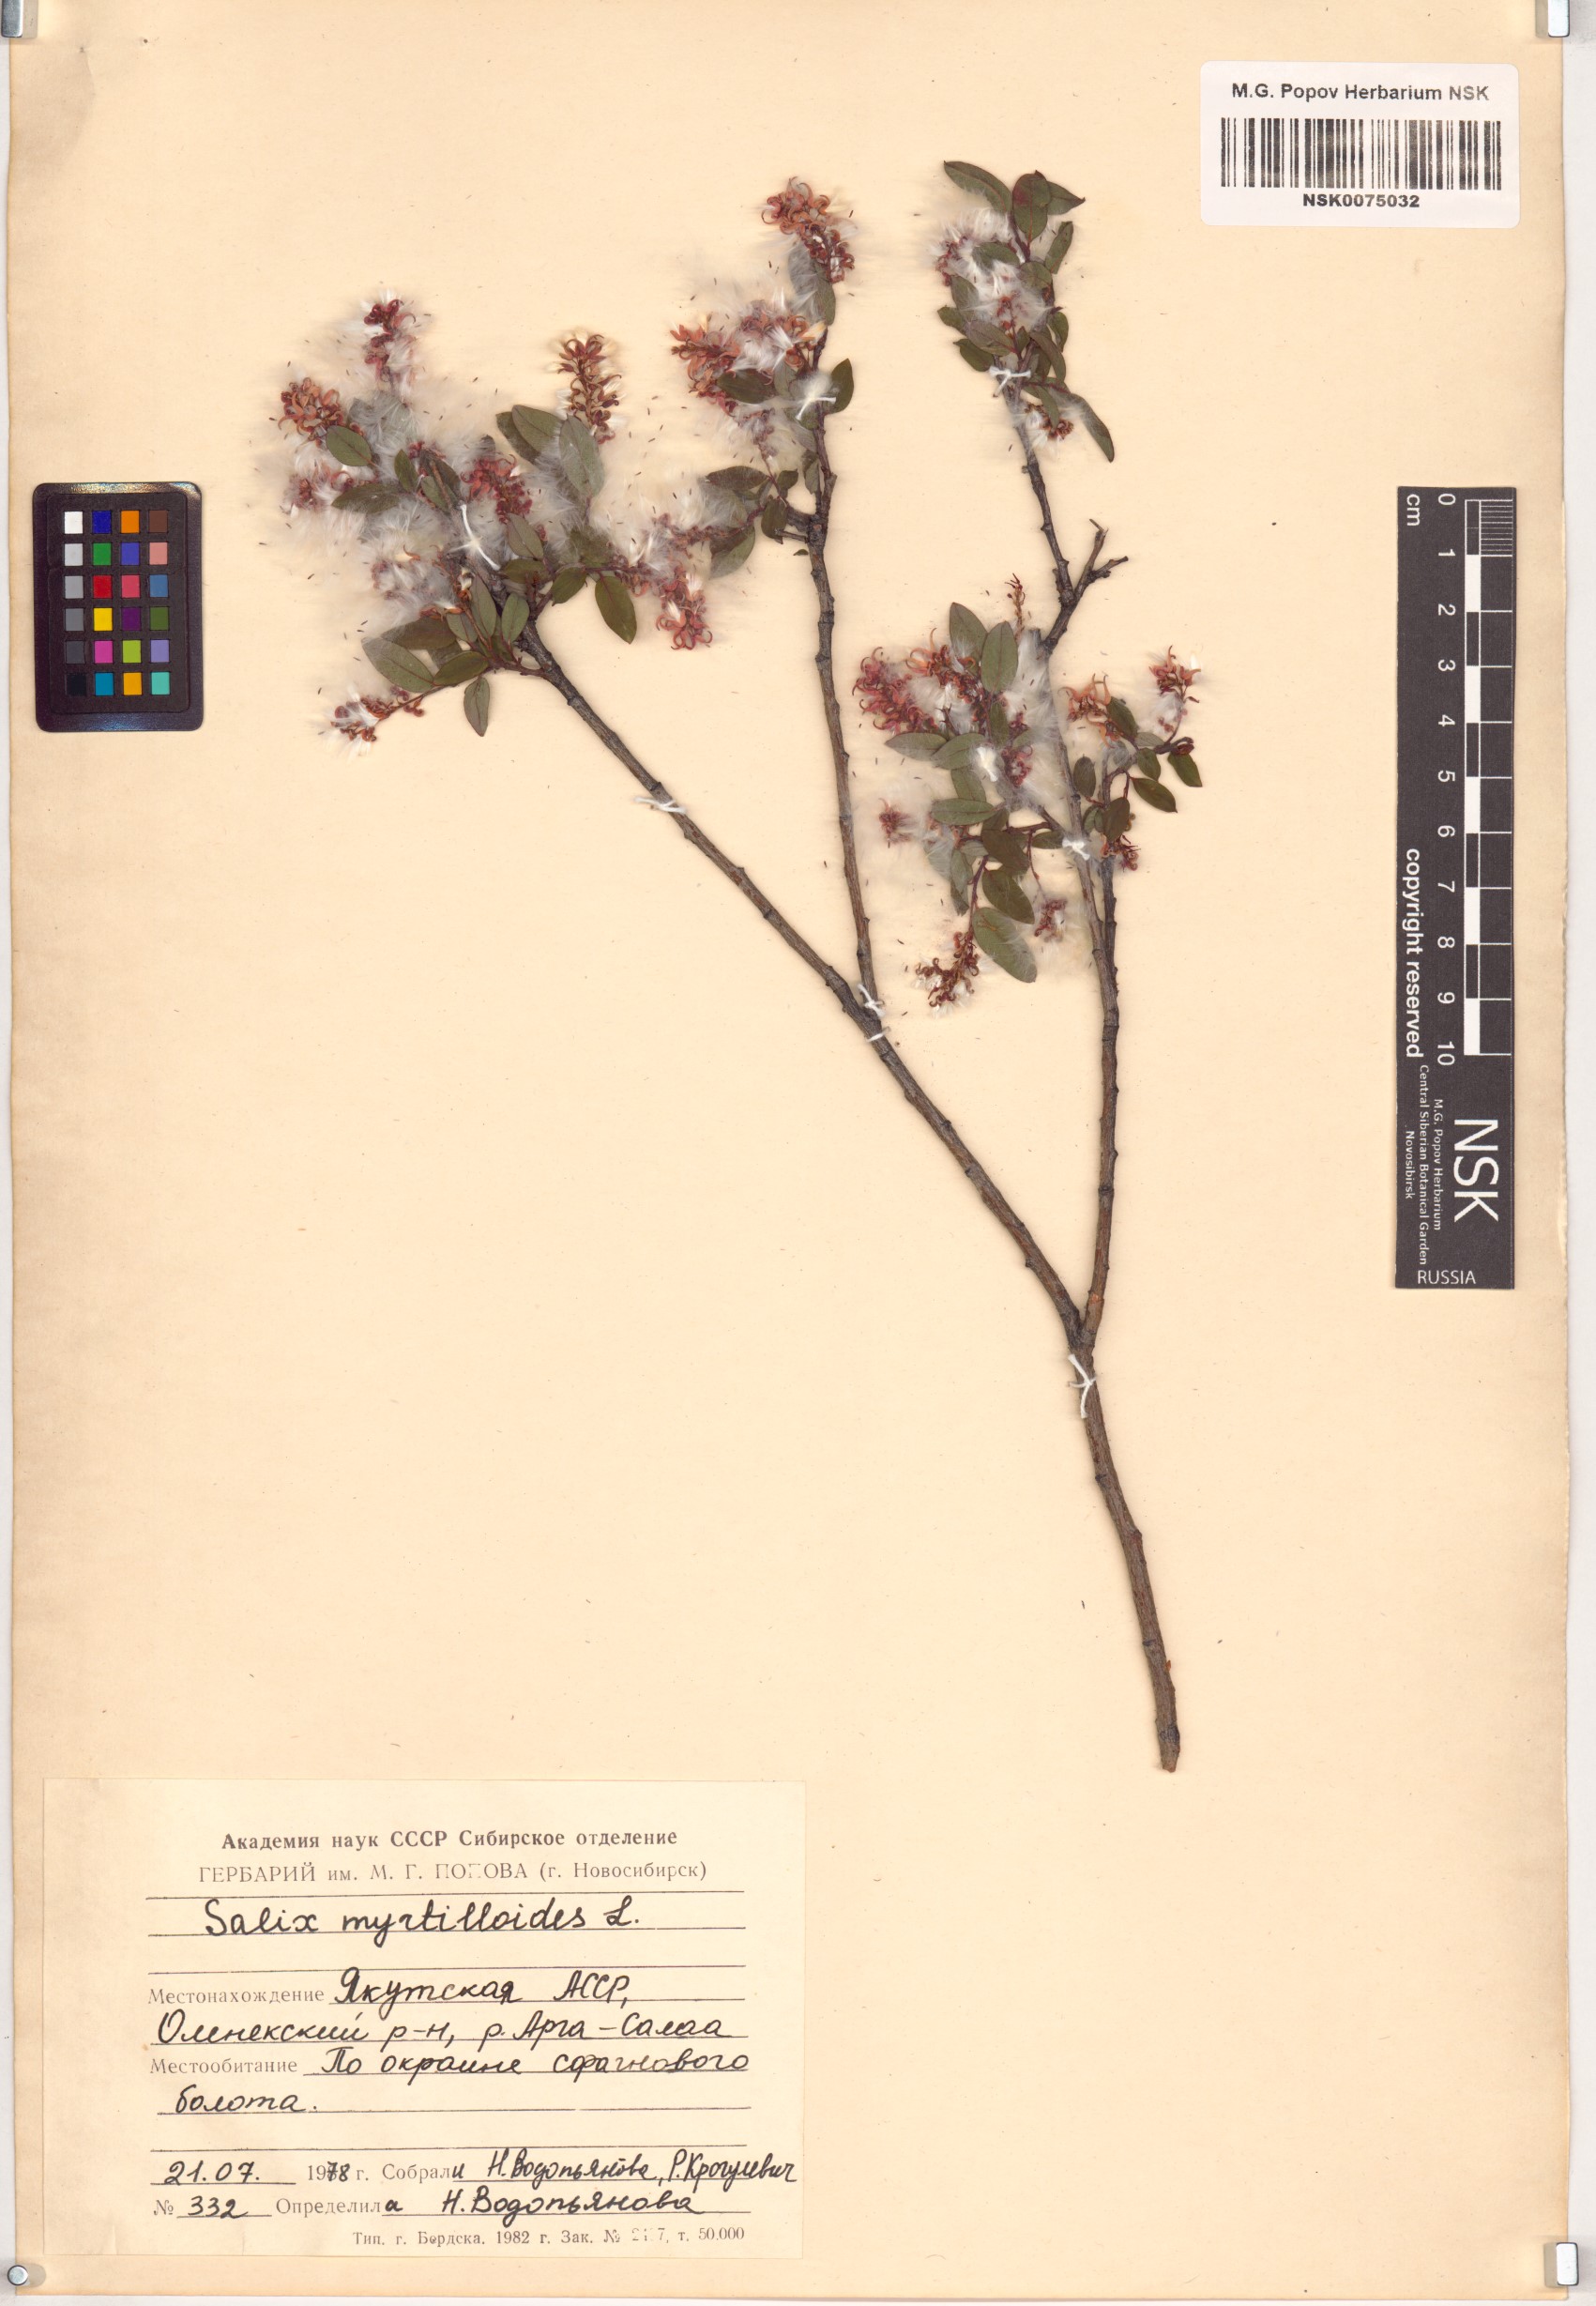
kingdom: Plantae
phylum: Tracheophyta
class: Magnoliopsida
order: Malpighiales
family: Salicaceae
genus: Salix
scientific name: Salix myrtilloides
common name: Myrtle-leaved willow
